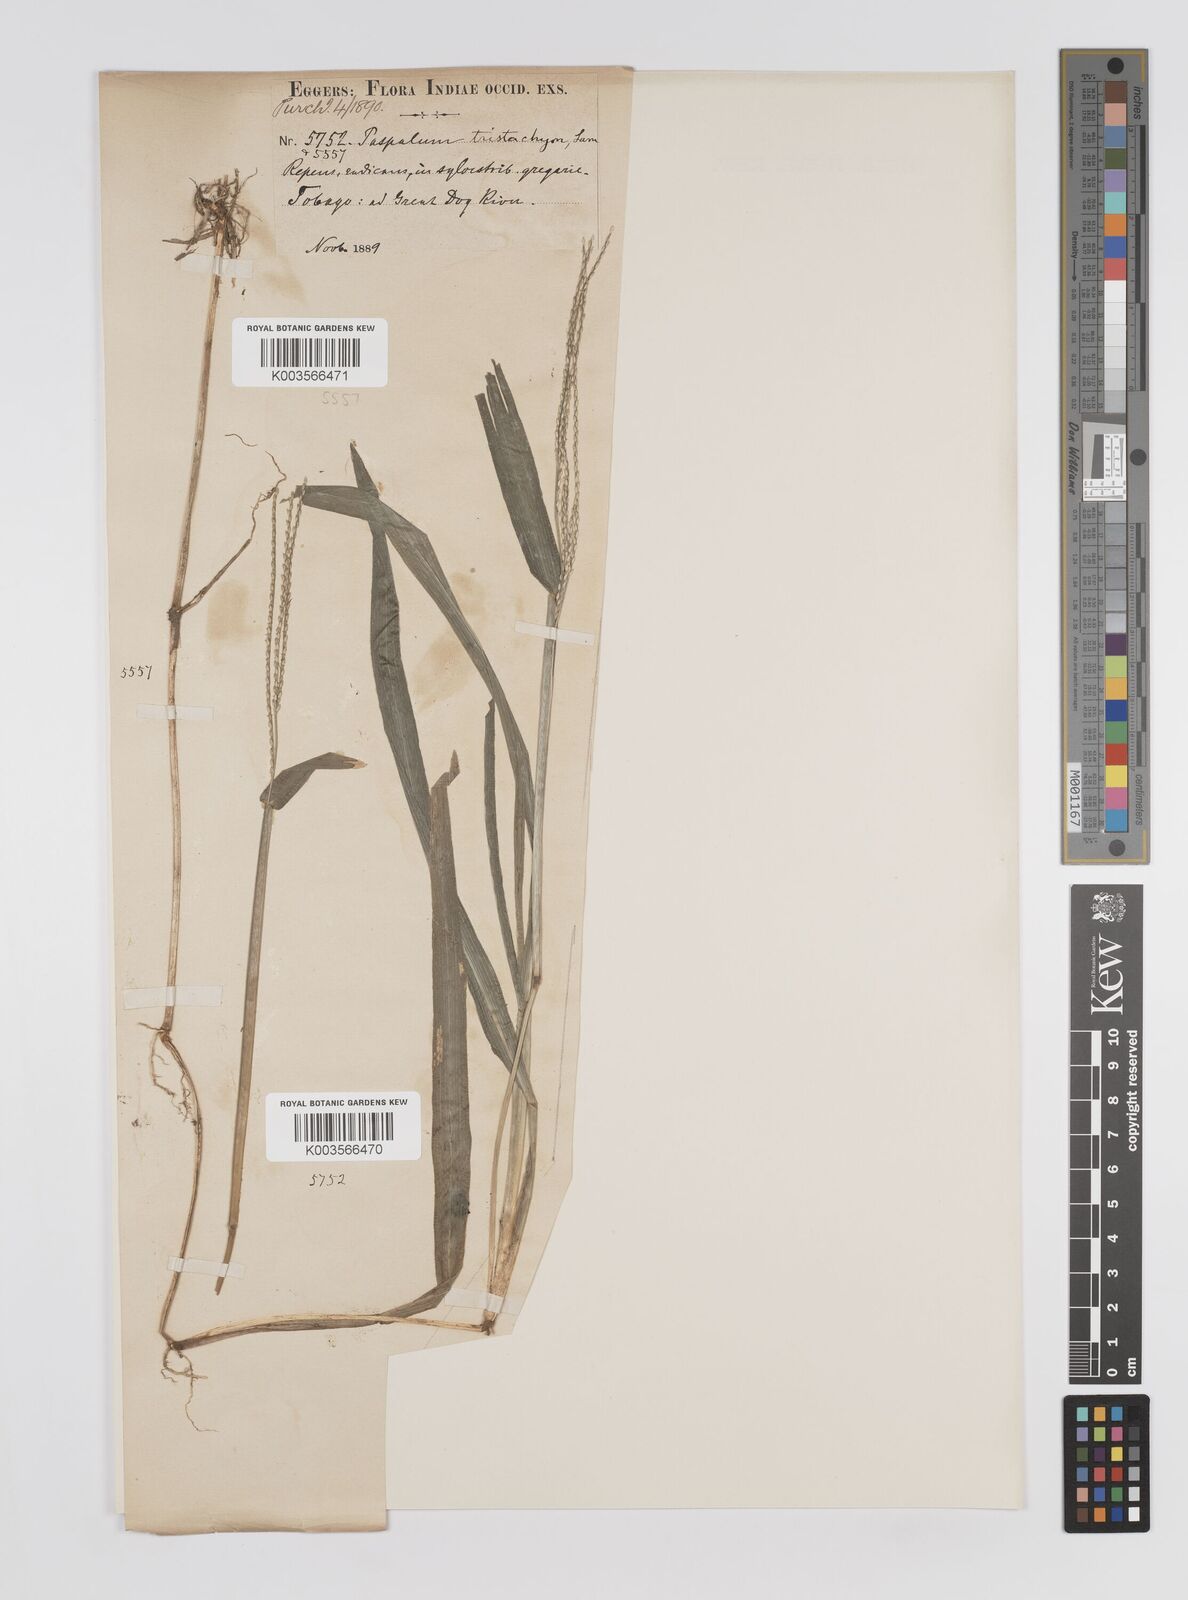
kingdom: Plantae
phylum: Tracheophyta
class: Liliopsida
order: Poales
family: Poaceae
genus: Axonopus
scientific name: Axonopus compressus
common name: American carpet grass
